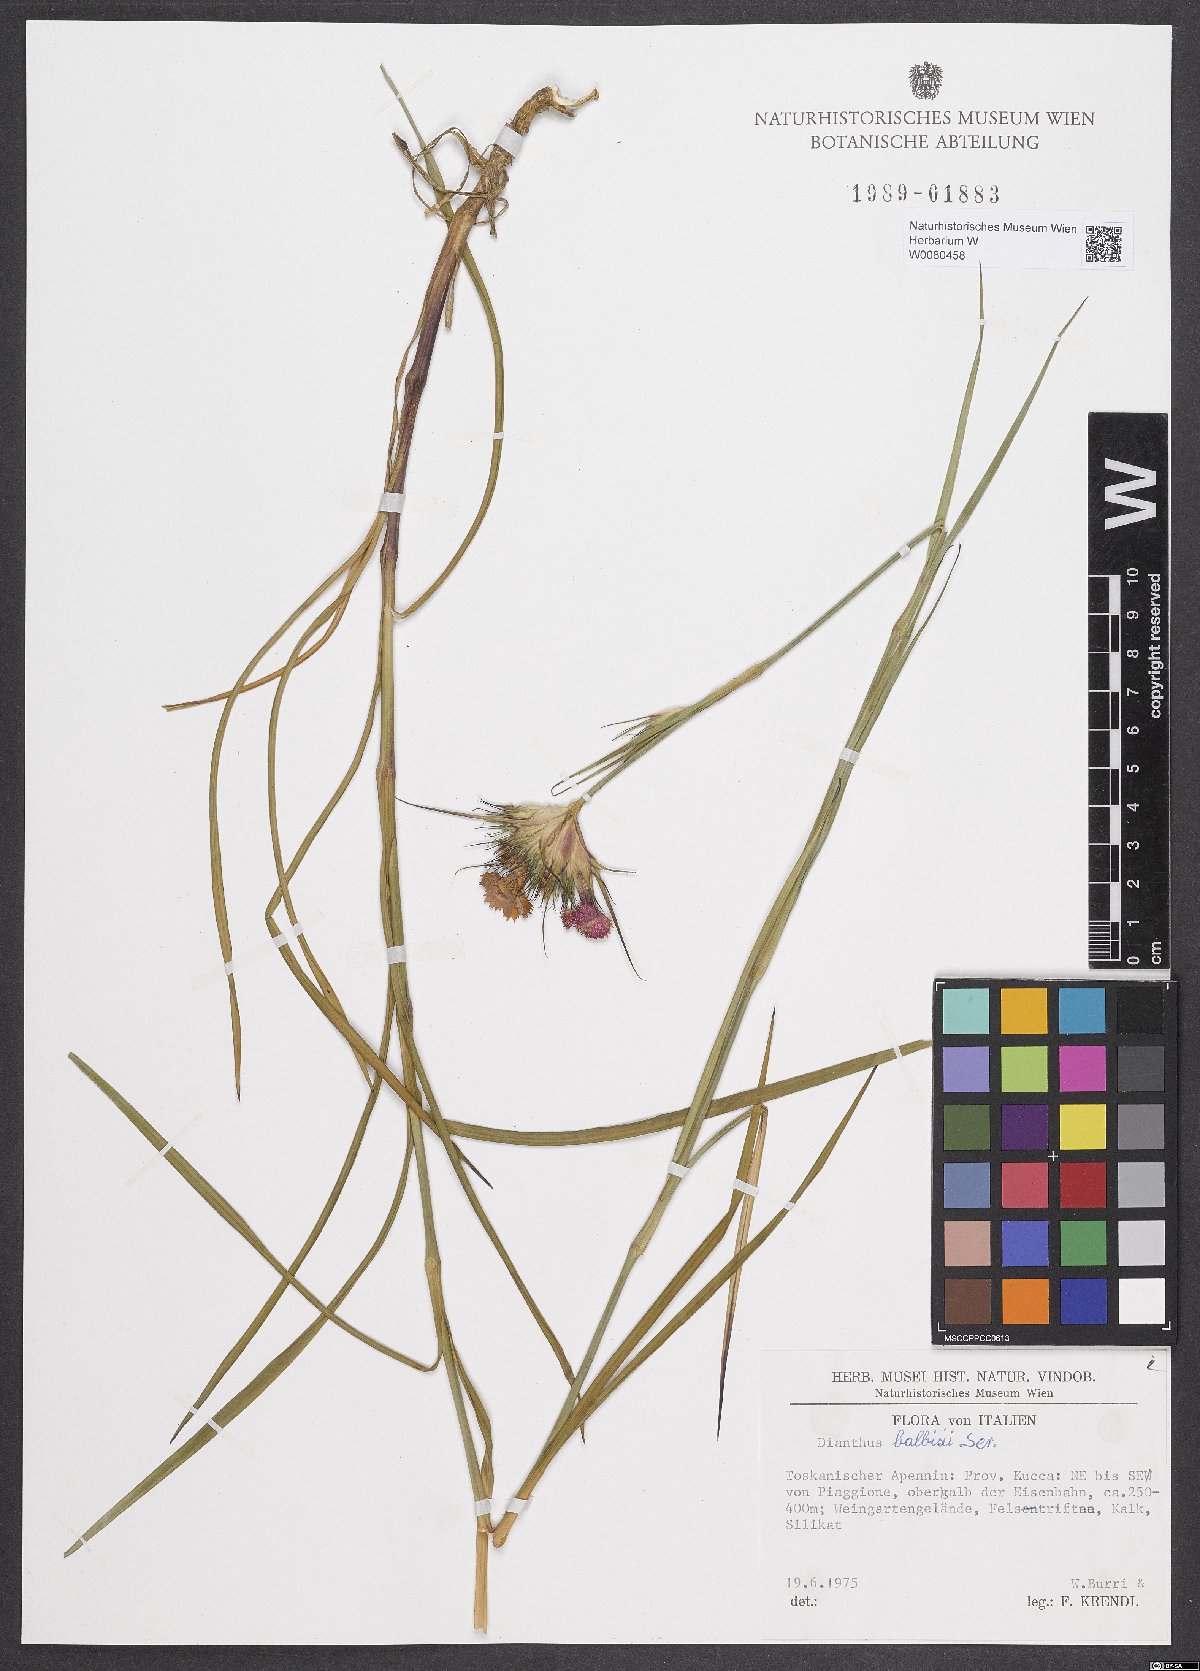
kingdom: Plantae
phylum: Tracheophyta
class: Magnoliopsida
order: Caryophyllales
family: Caryophyllaceae
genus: Dianthus
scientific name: Dianthus balbisii
